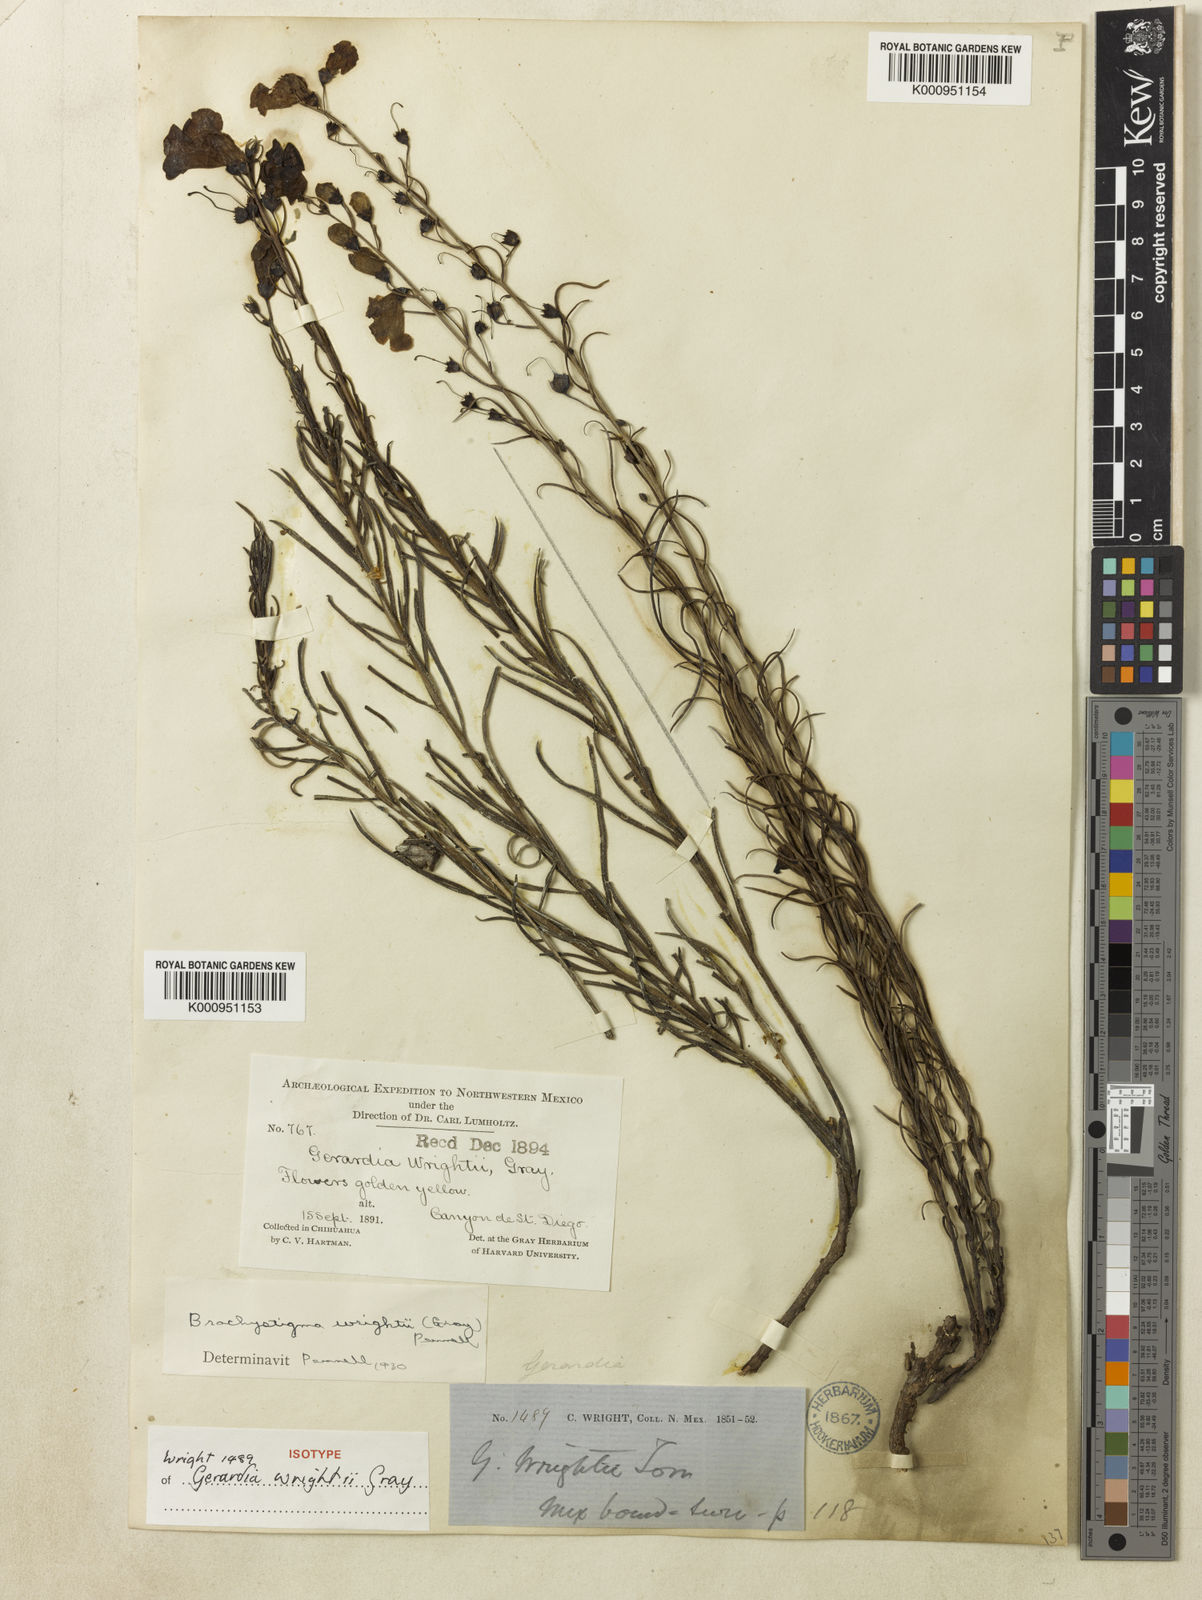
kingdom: Plantae
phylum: Tracheophyta
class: Magnoliopsida
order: Lamiales
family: Orobanchaceae
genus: Brachystigma
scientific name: Brachystigma wrightii
